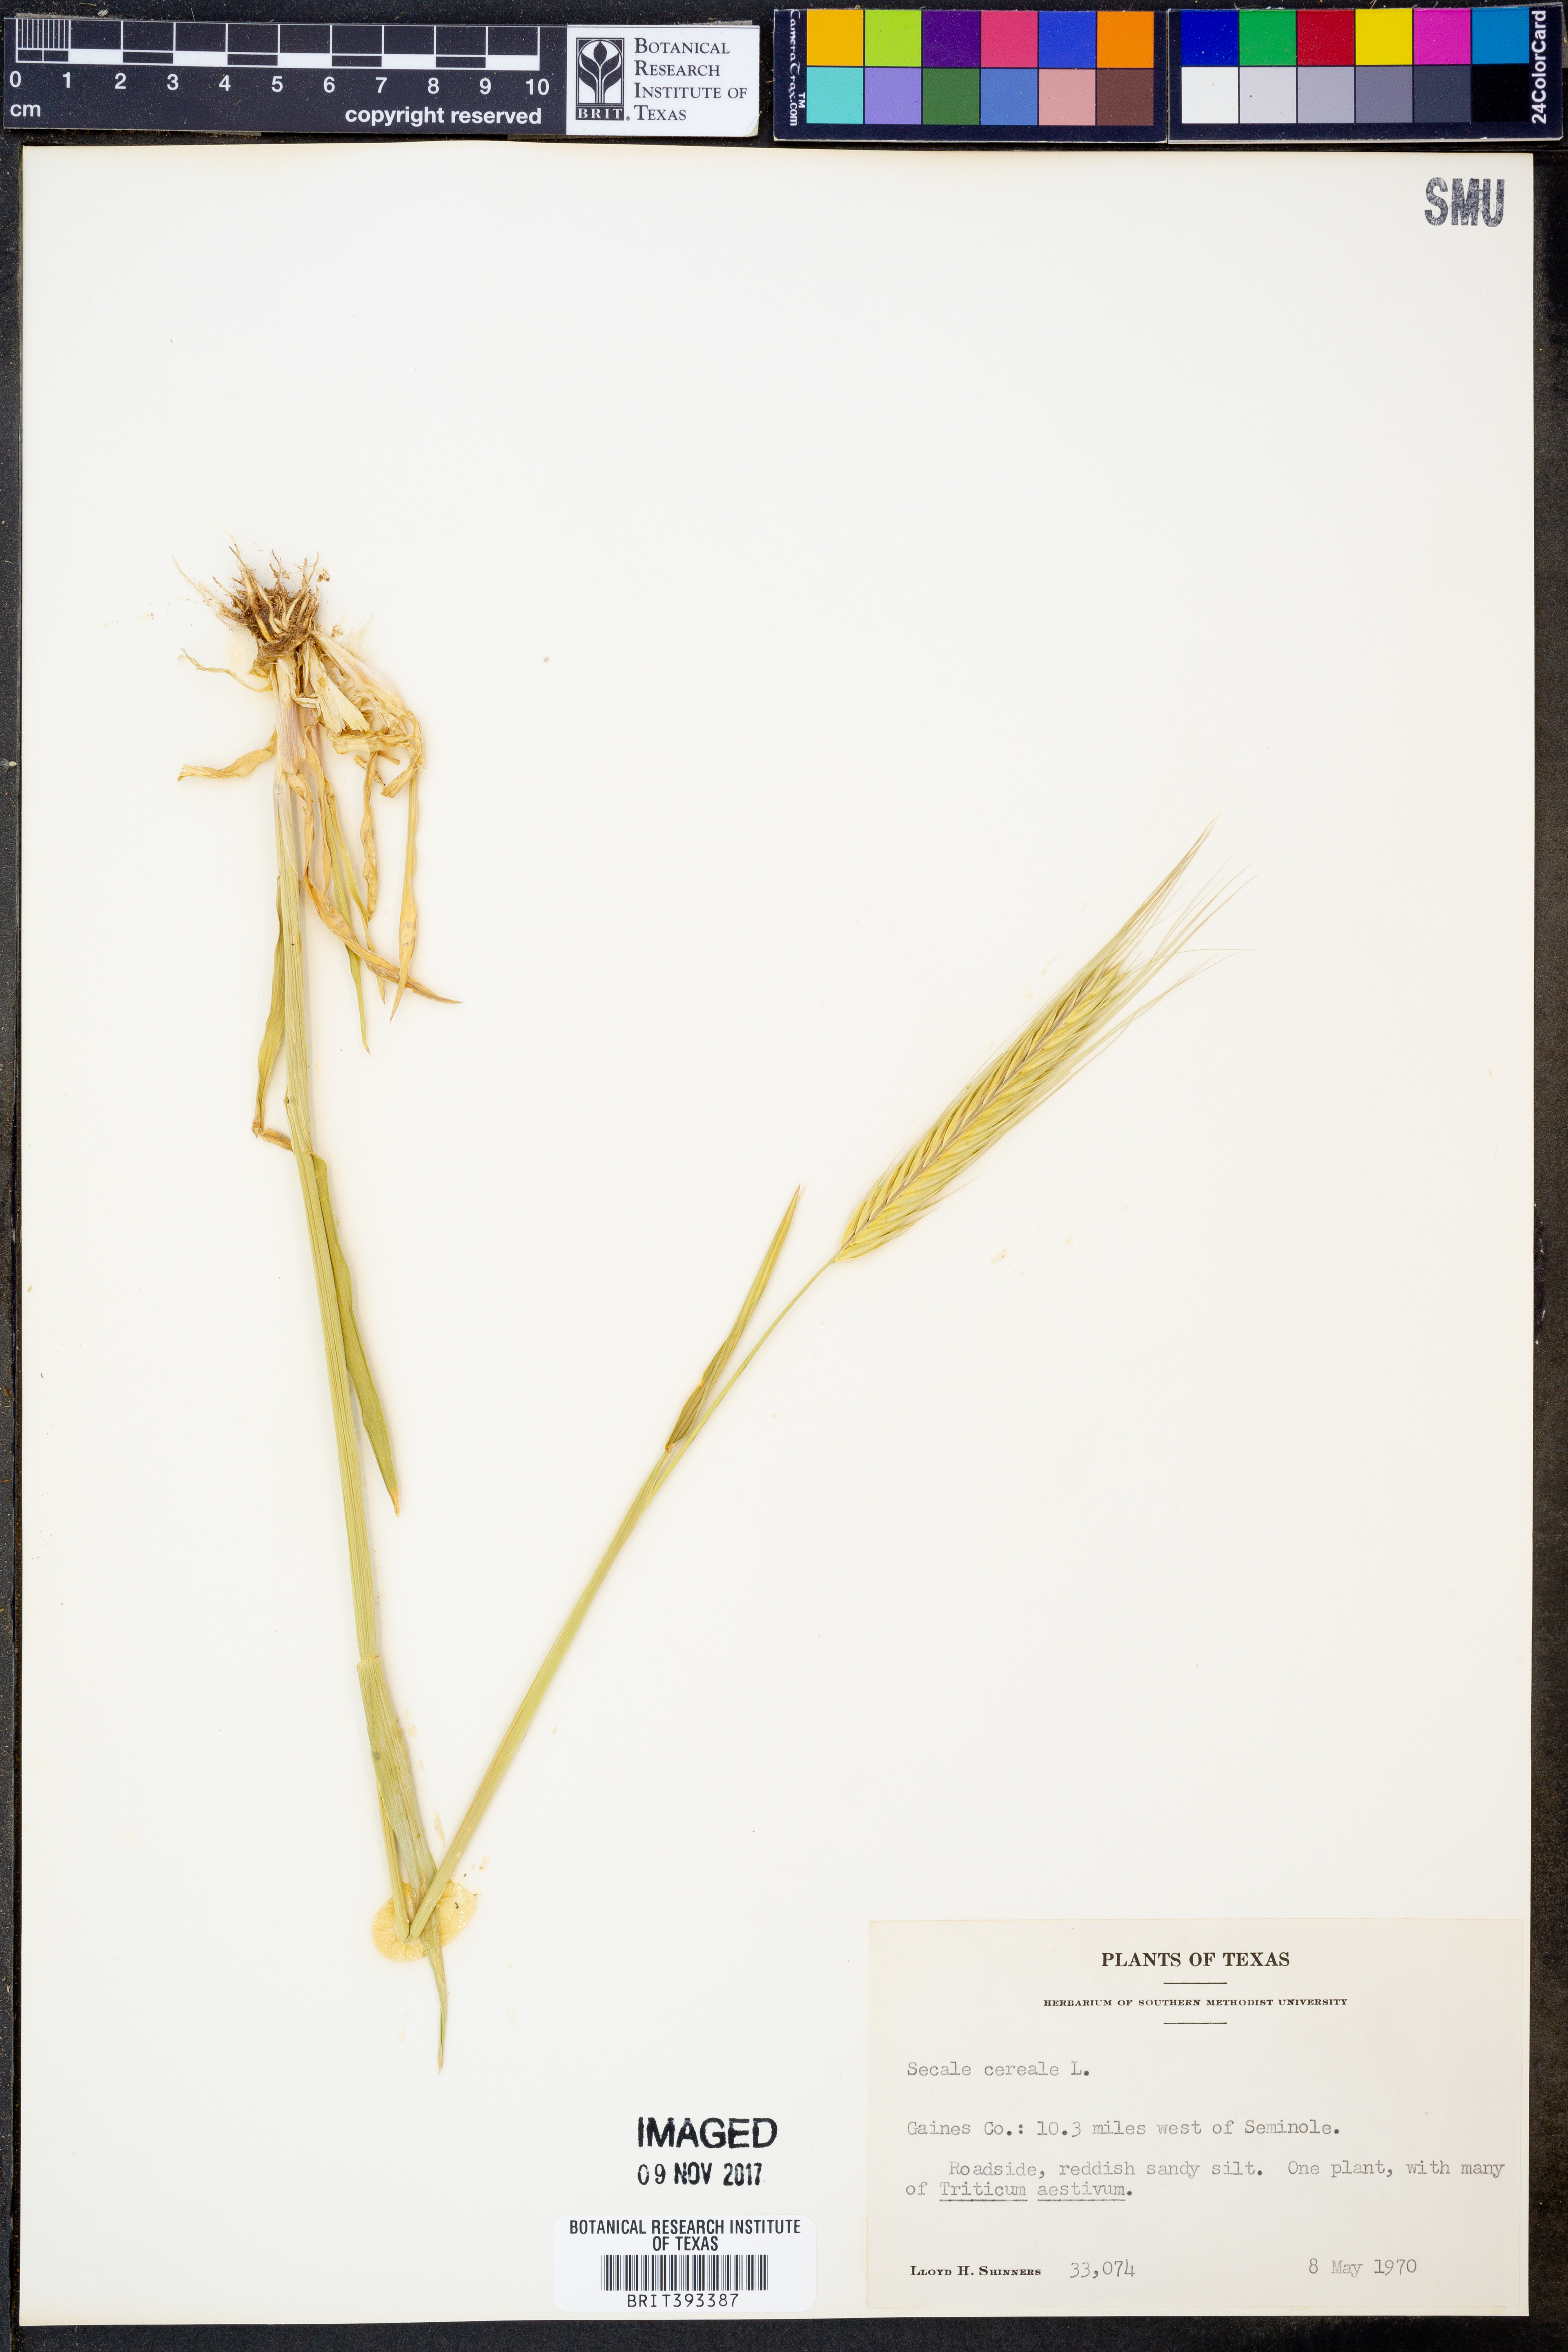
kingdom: Plantae
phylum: Tracheophyta
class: Liliopsida
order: Poales
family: Poaceae
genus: Secale
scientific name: Secale cereale
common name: Rye
